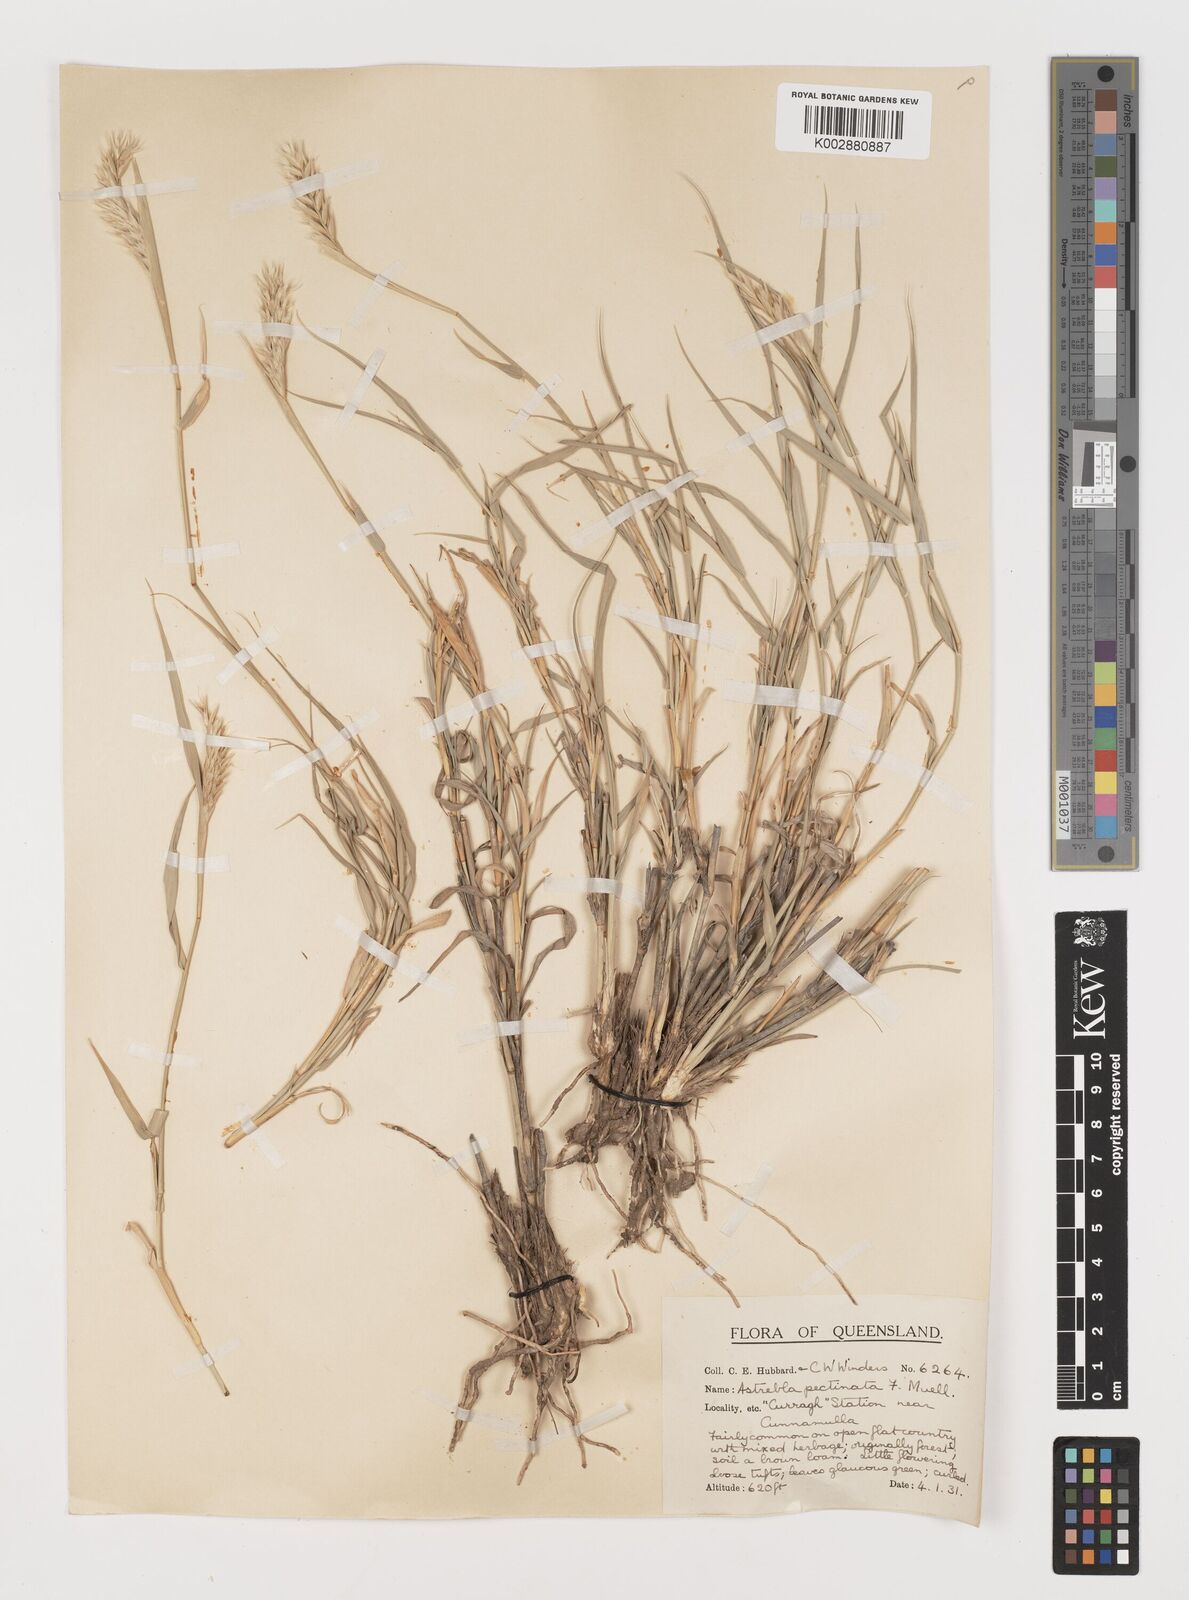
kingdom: Plantae
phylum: Tracheophyta
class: Liliopsida
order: Poales
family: Poaceae
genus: Astrebla
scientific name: Astrebla pectinata
